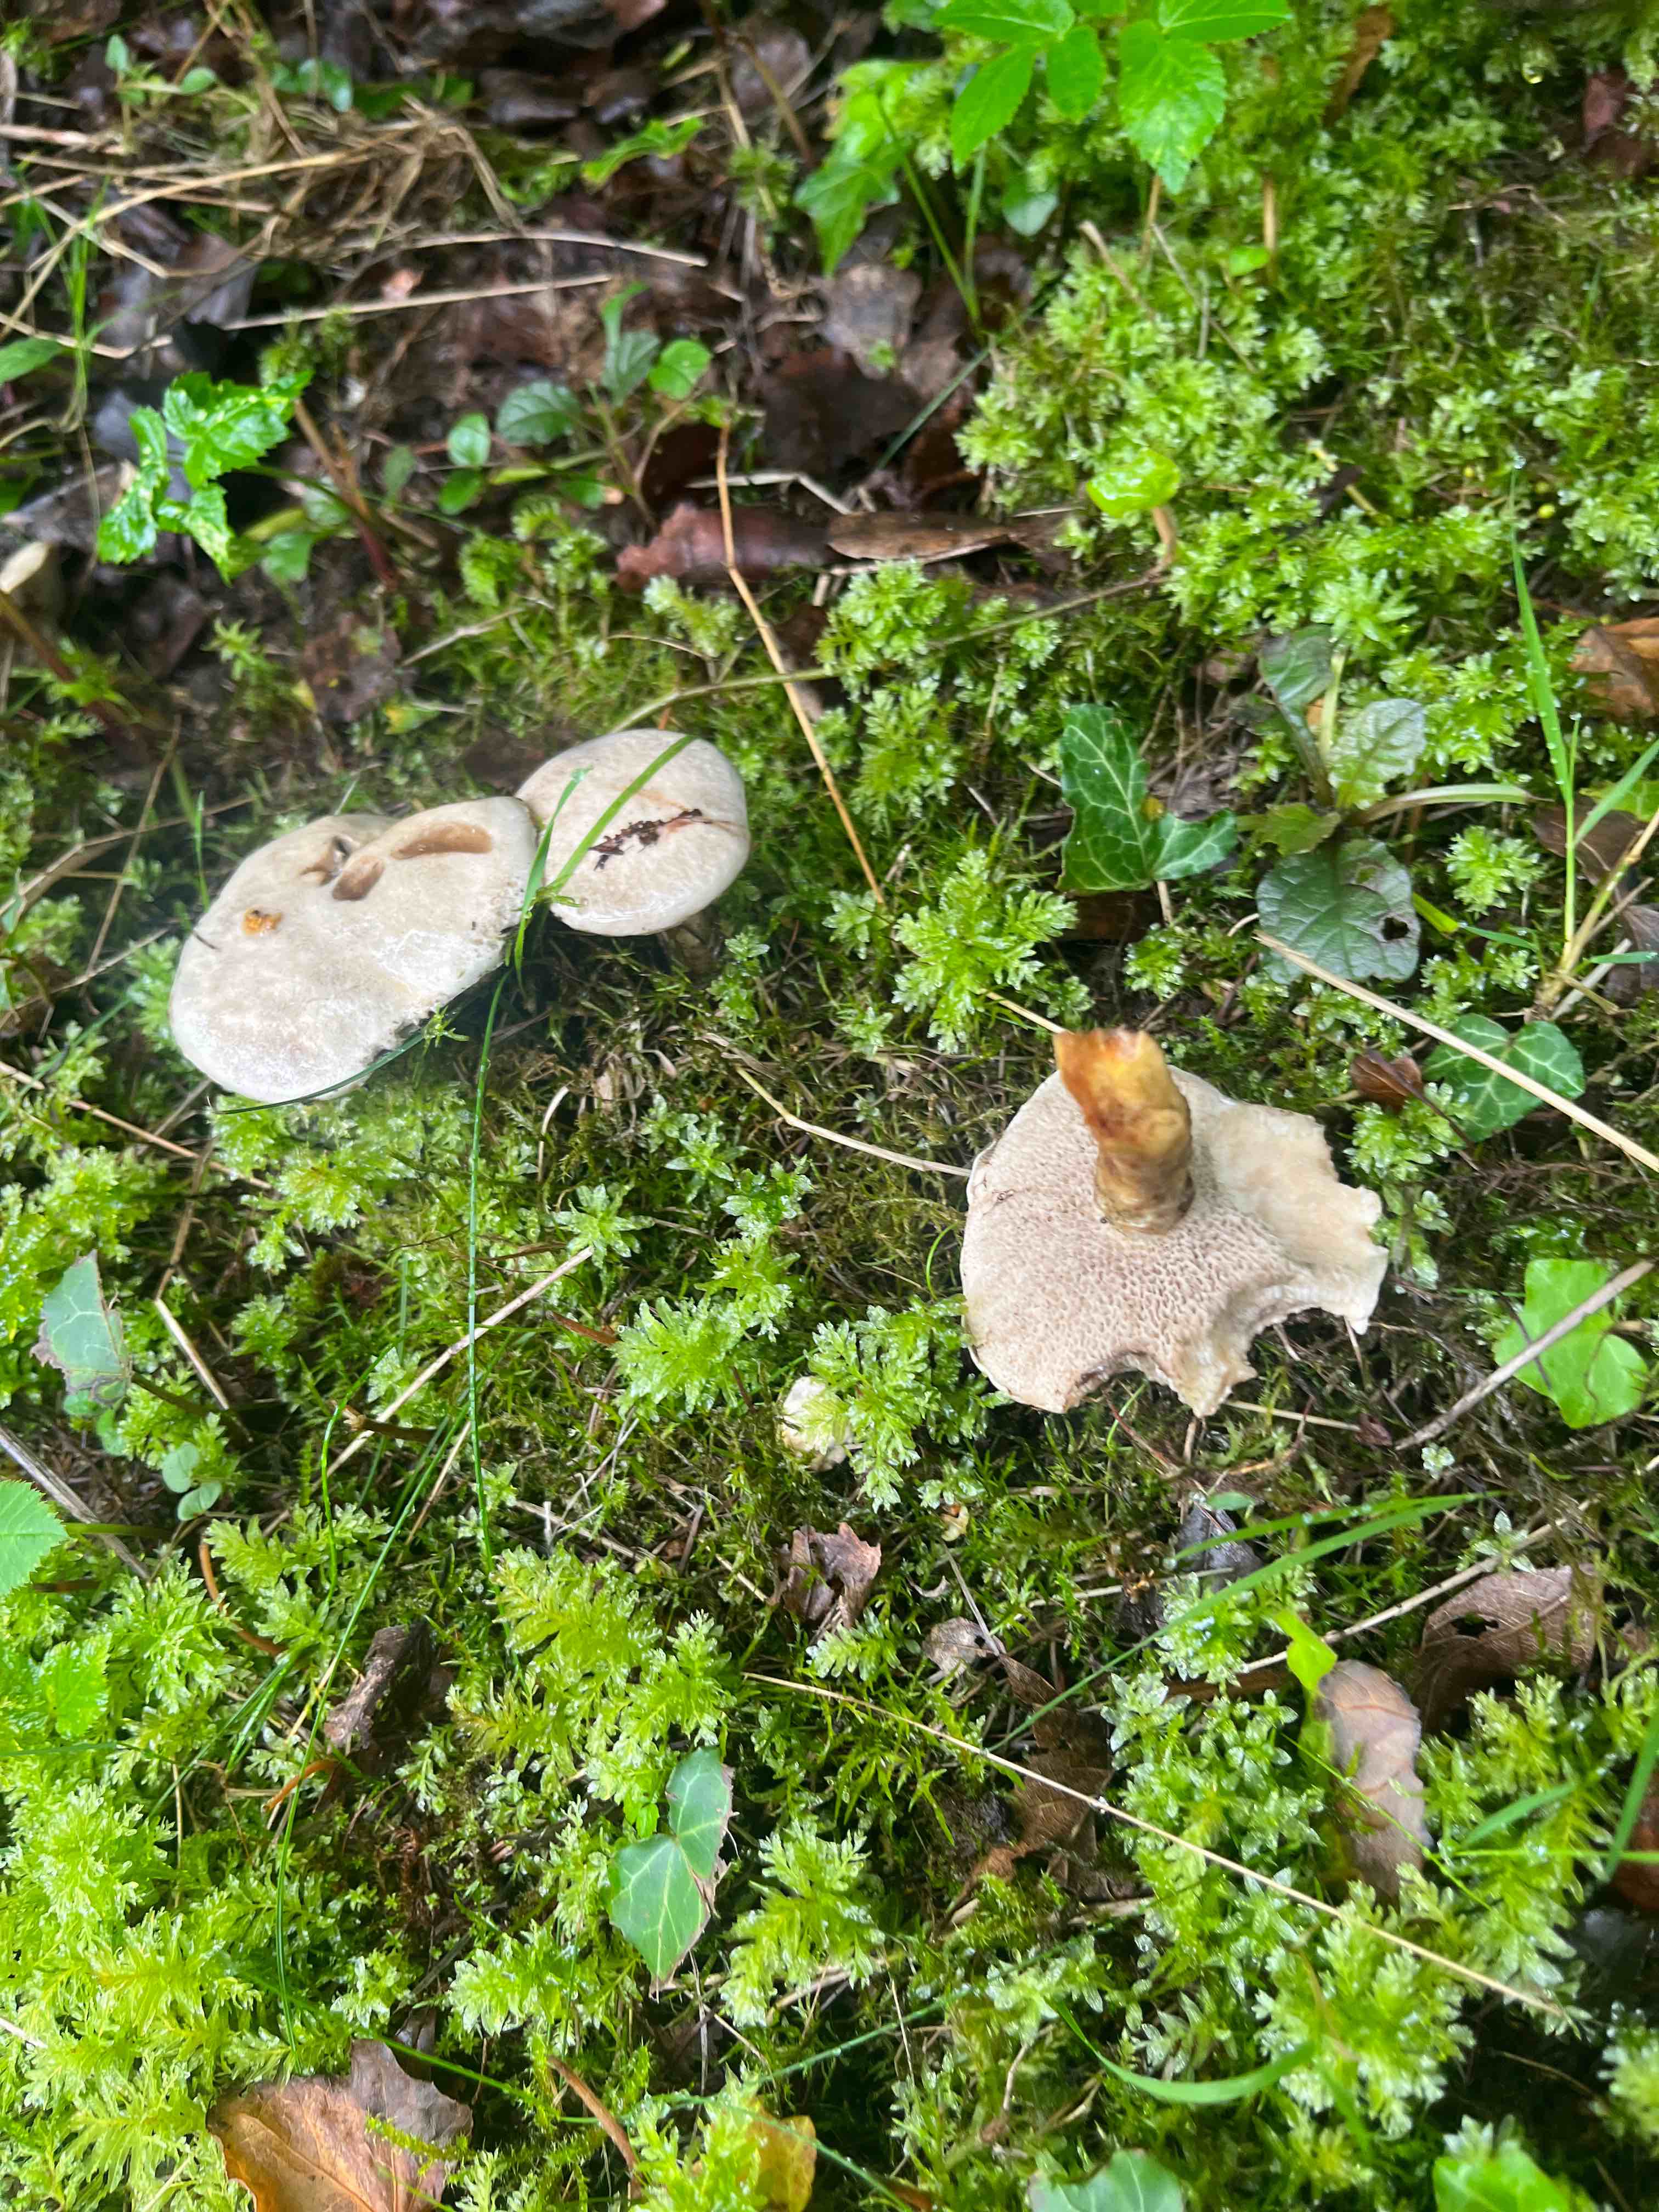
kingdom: Fungi
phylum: Basidiomycota
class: Agaricomycetes
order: Boletales
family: Suillaceae
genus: Suillus
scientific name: Suillus viscidus
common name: olivengrå slimrørhat
